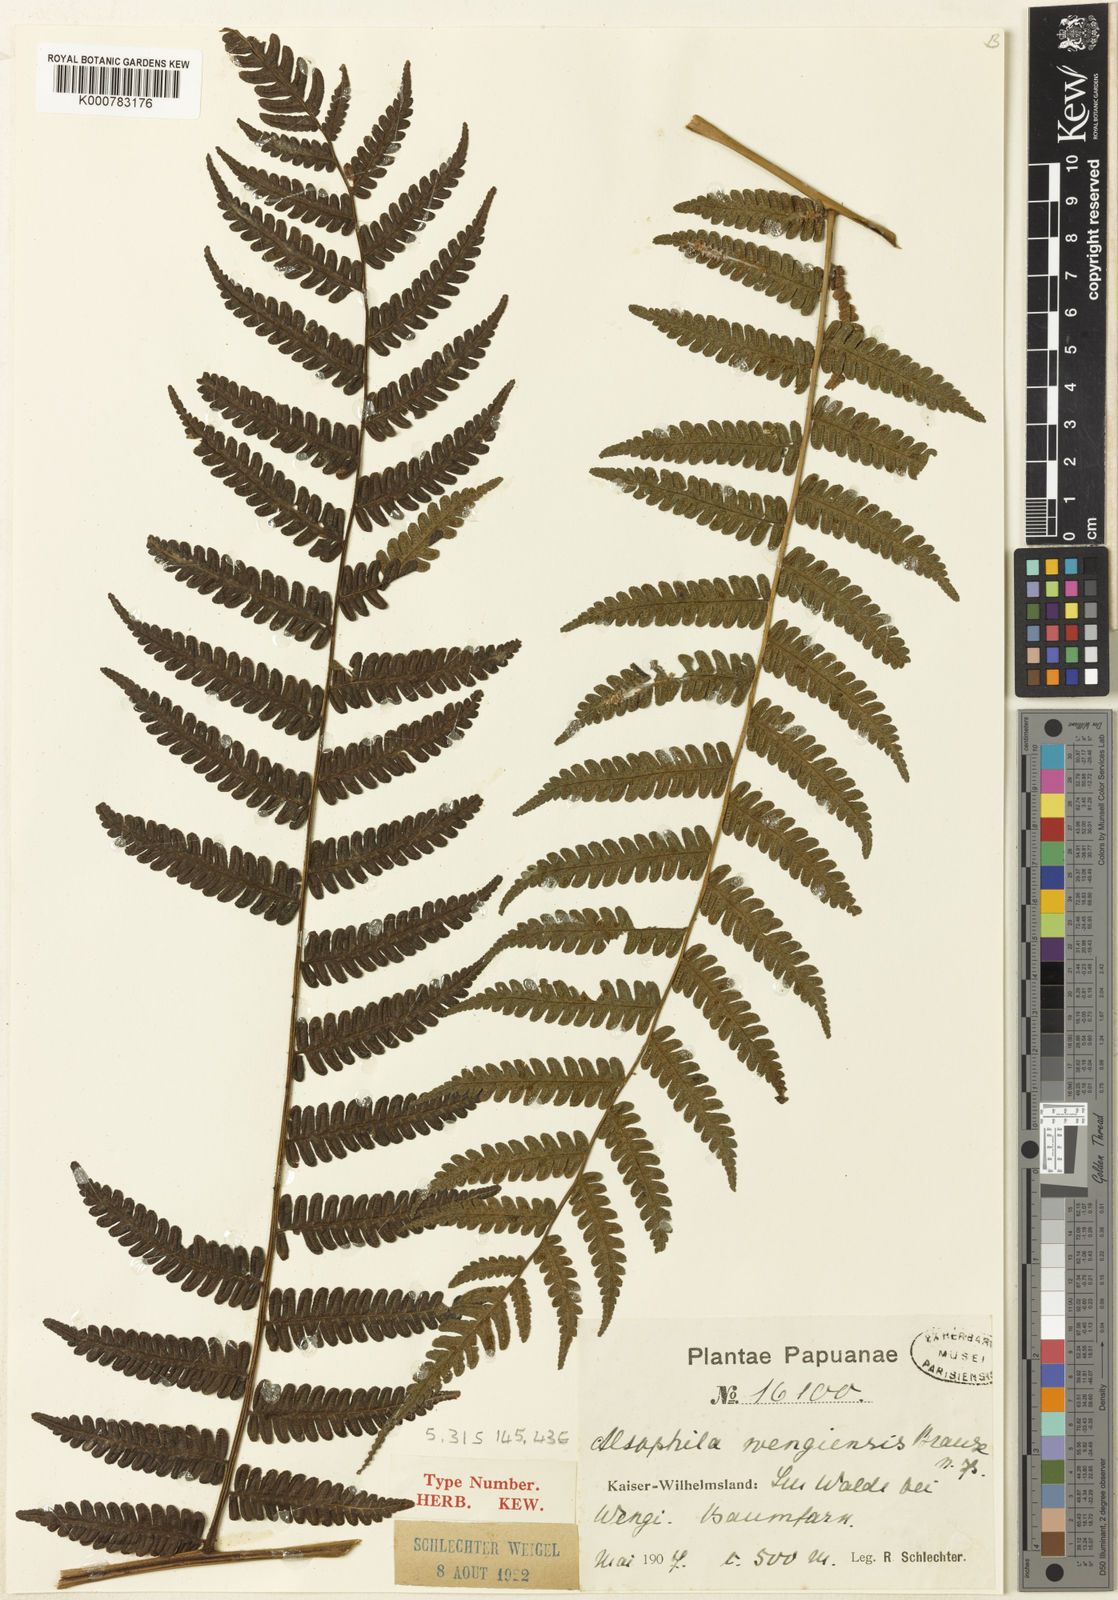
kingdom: Plantae
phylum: Tracheophyta
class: Polypodiopsida
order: Cyatheales
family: Cyatheaceae
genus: Alsophila
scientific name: Alsophila wengiensis
